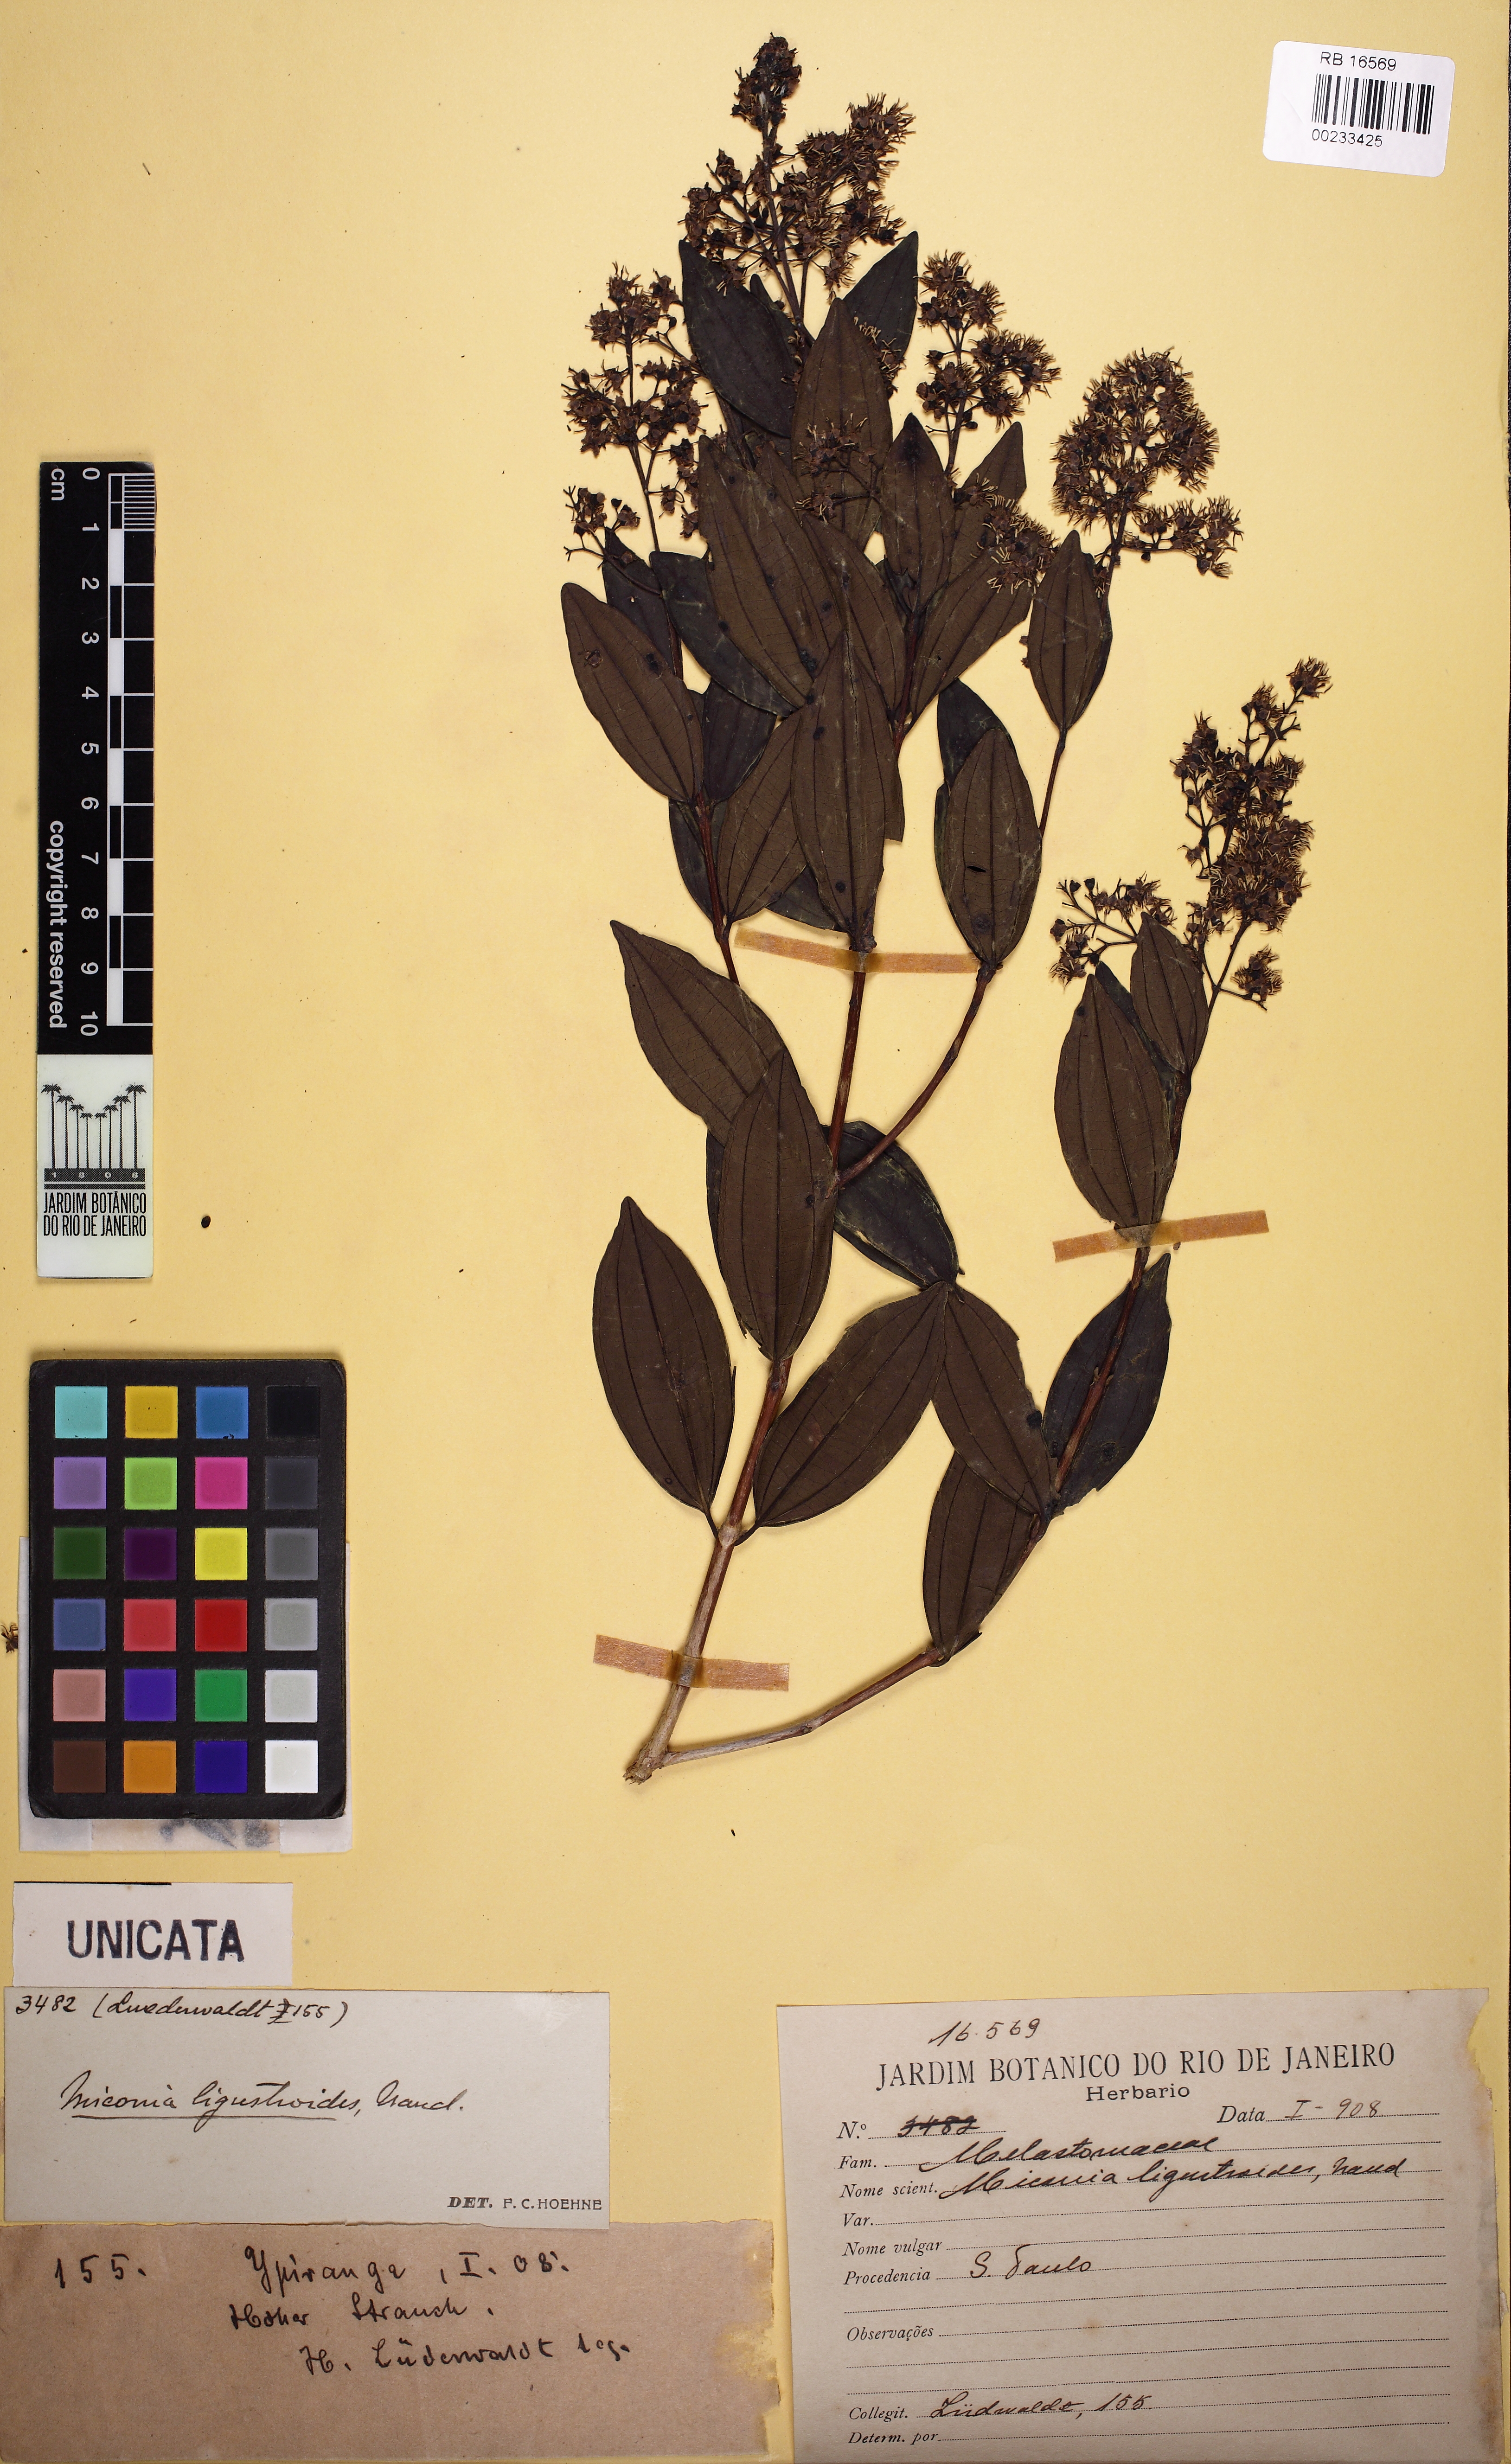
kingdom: Plantae
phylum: Tracheophyta
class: Magnoliopsida
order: Myrtales
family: Melastomataceae
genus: Miconia
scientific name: Miconia ligustroides
